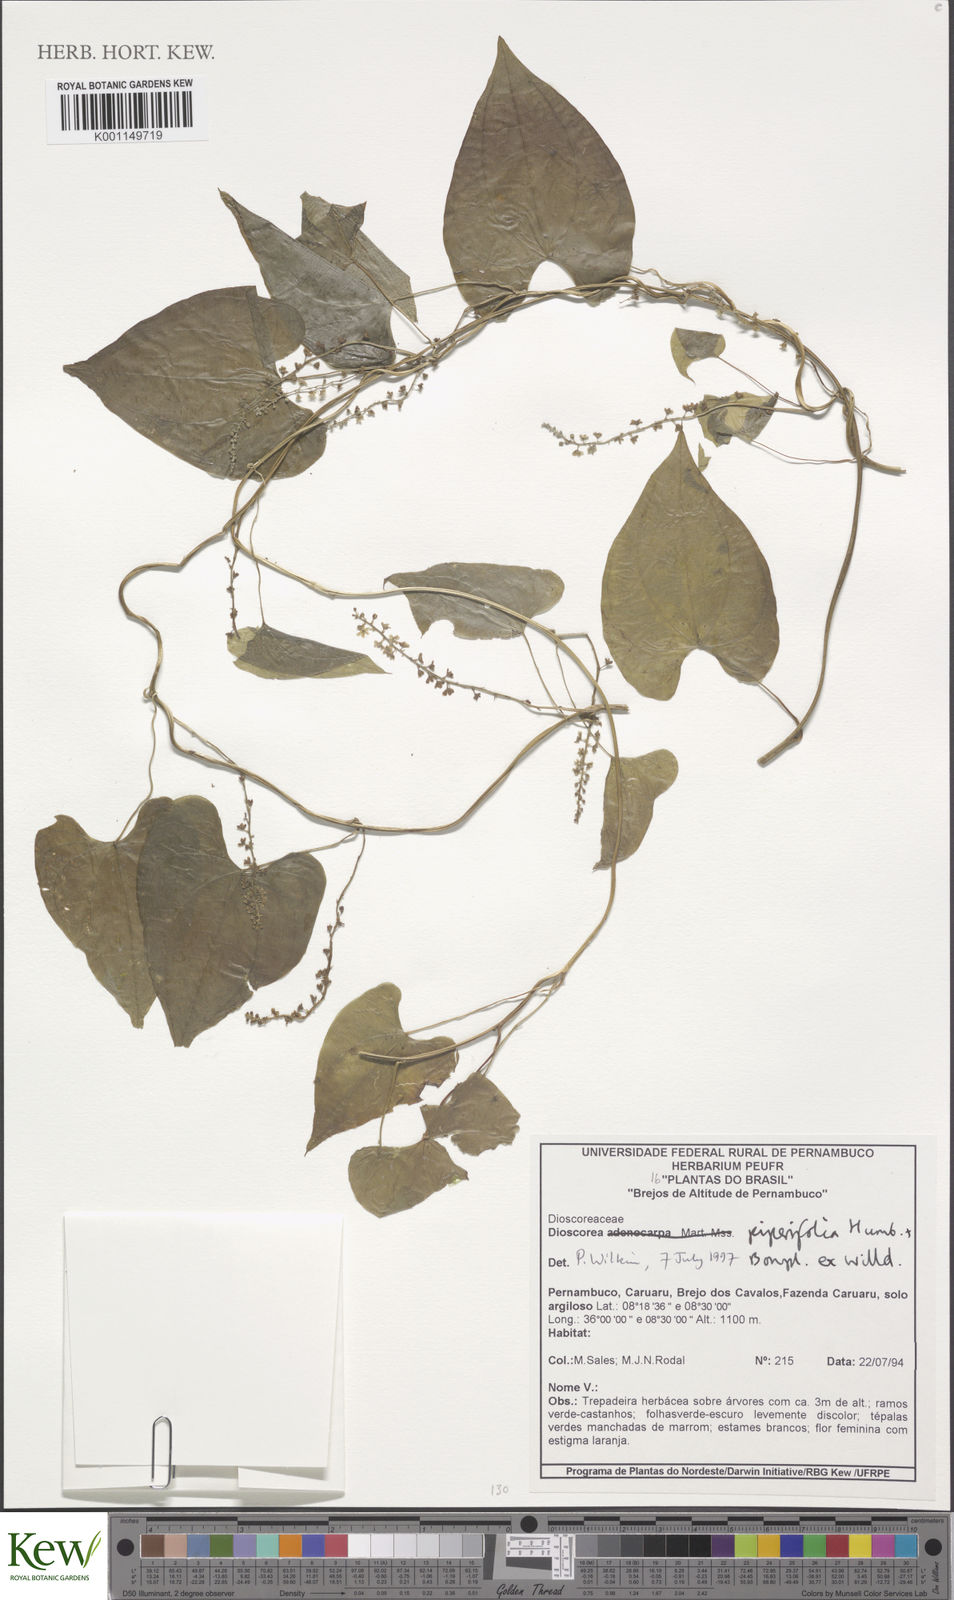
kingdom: Plantae
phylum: Tracheophyta
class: Liliopsida
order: Dioscoreales
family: Dioscoreaceae
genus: Dioscorea
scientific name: Dioscorea piperifolia
